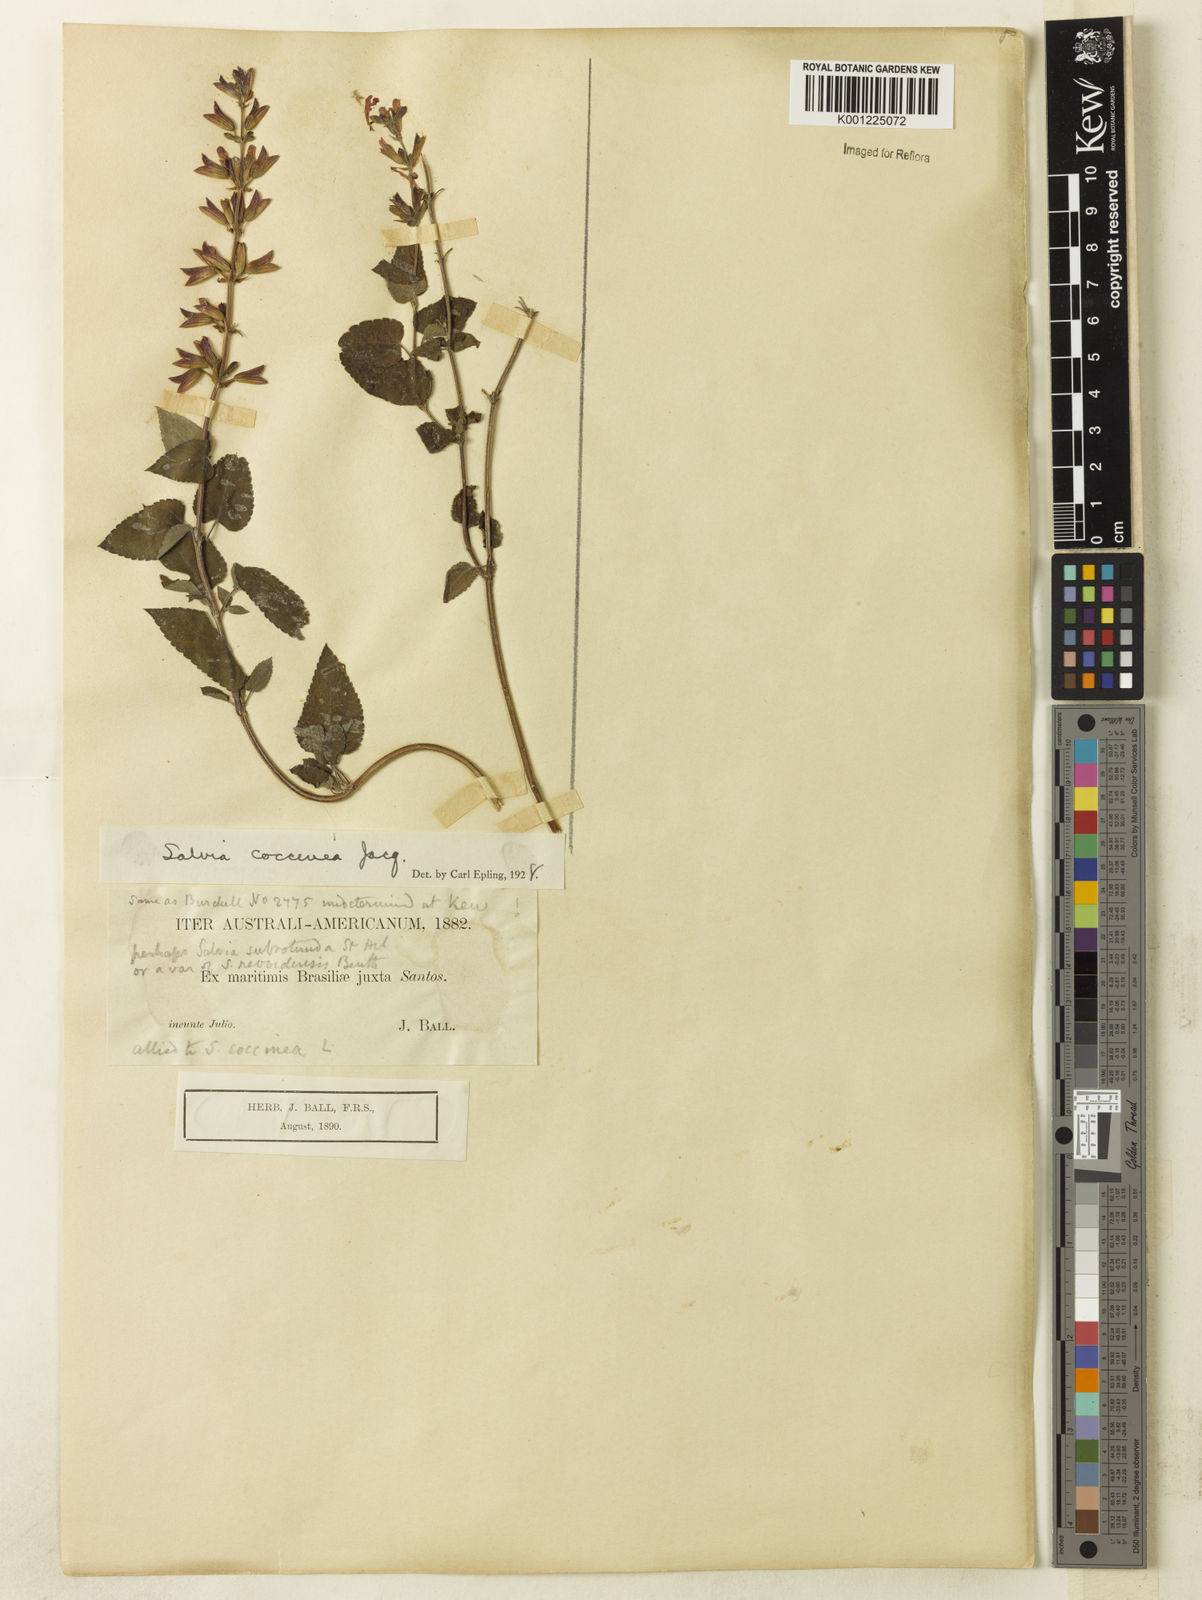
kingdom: Plantae
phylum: Tracheophyta
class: Magnoliopsida
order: Lamiales
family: Lamiaceae
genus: Salvia
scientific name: Salvia coccinea
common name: Blood sage
